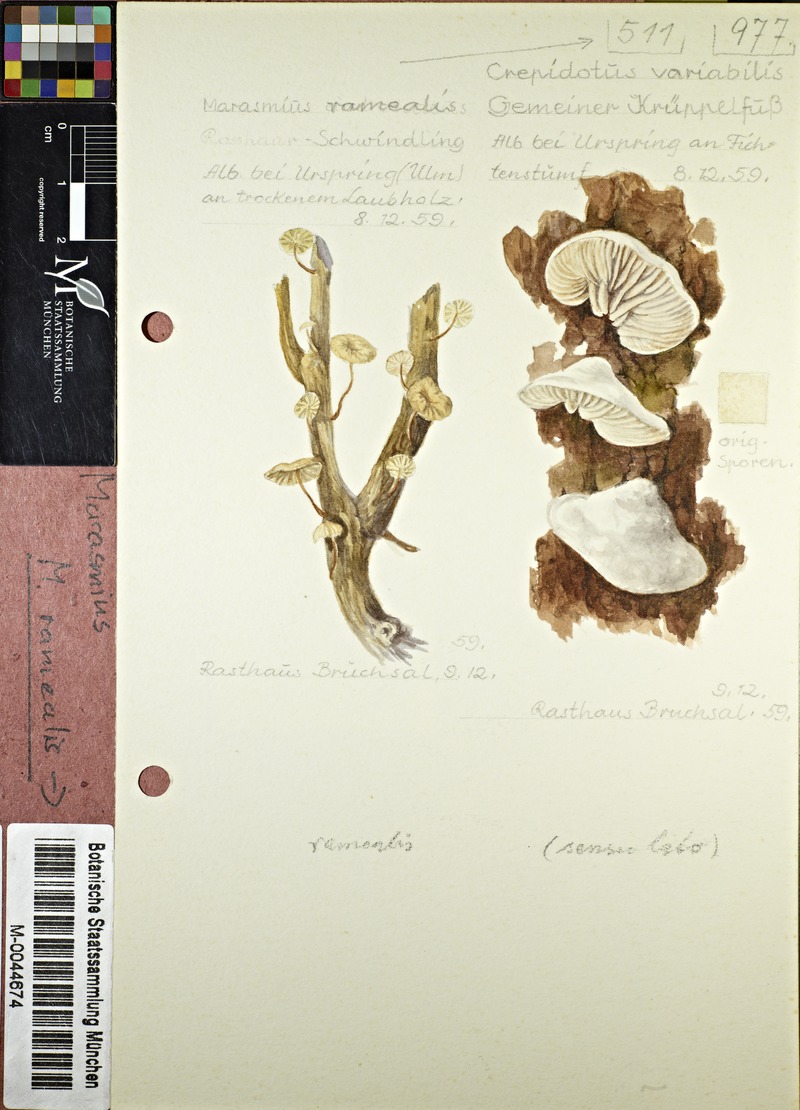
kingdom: Fungi
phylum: Basidiomycota
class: Agaricomycetes
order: Agaricales
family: Omphalotaceae
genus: Collybiopsis
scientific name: Collybiopsis ramealis
